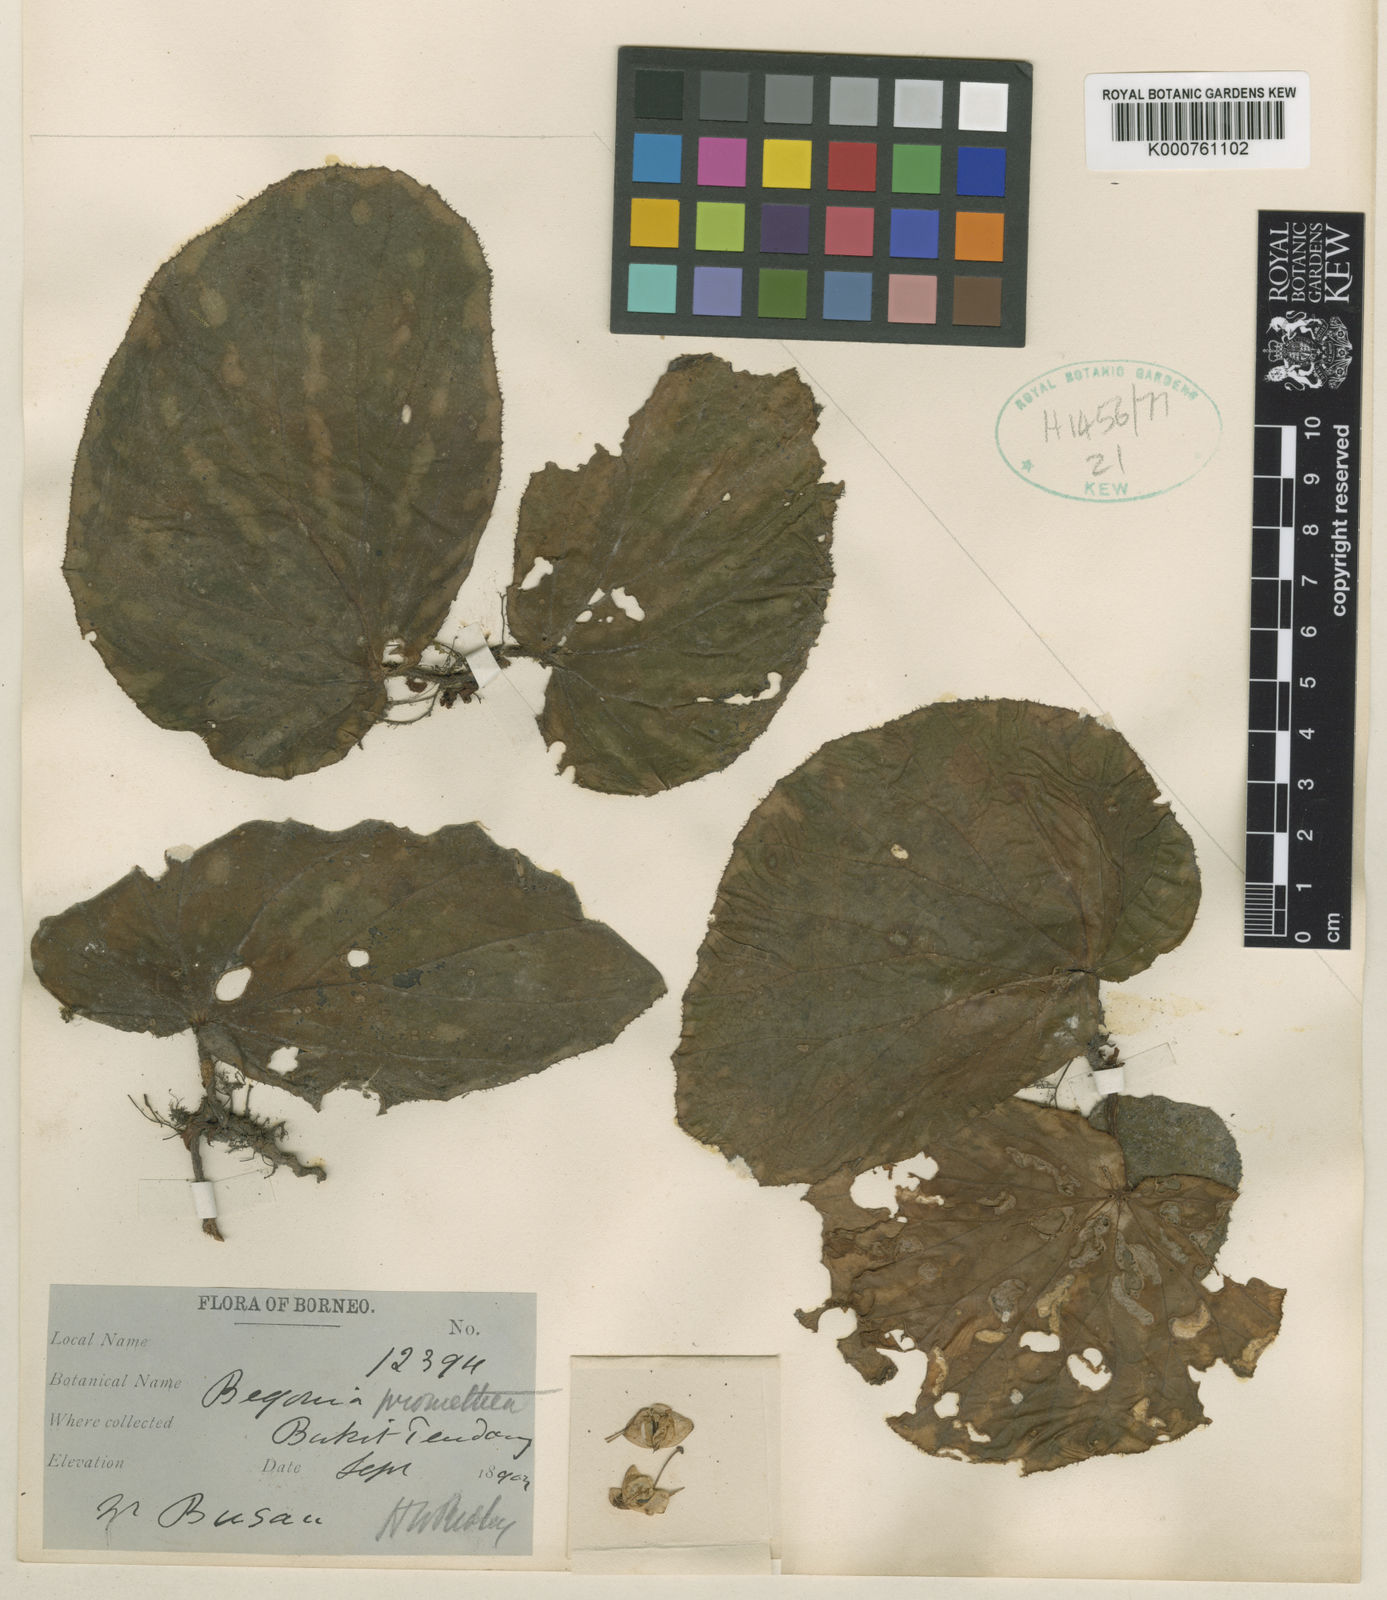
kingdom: Plantae
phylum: Tracheophyta
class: Magnoliopsida
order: Cucurbitales
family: Begoniaceae
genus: Begonia
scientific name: Begonia promethea
